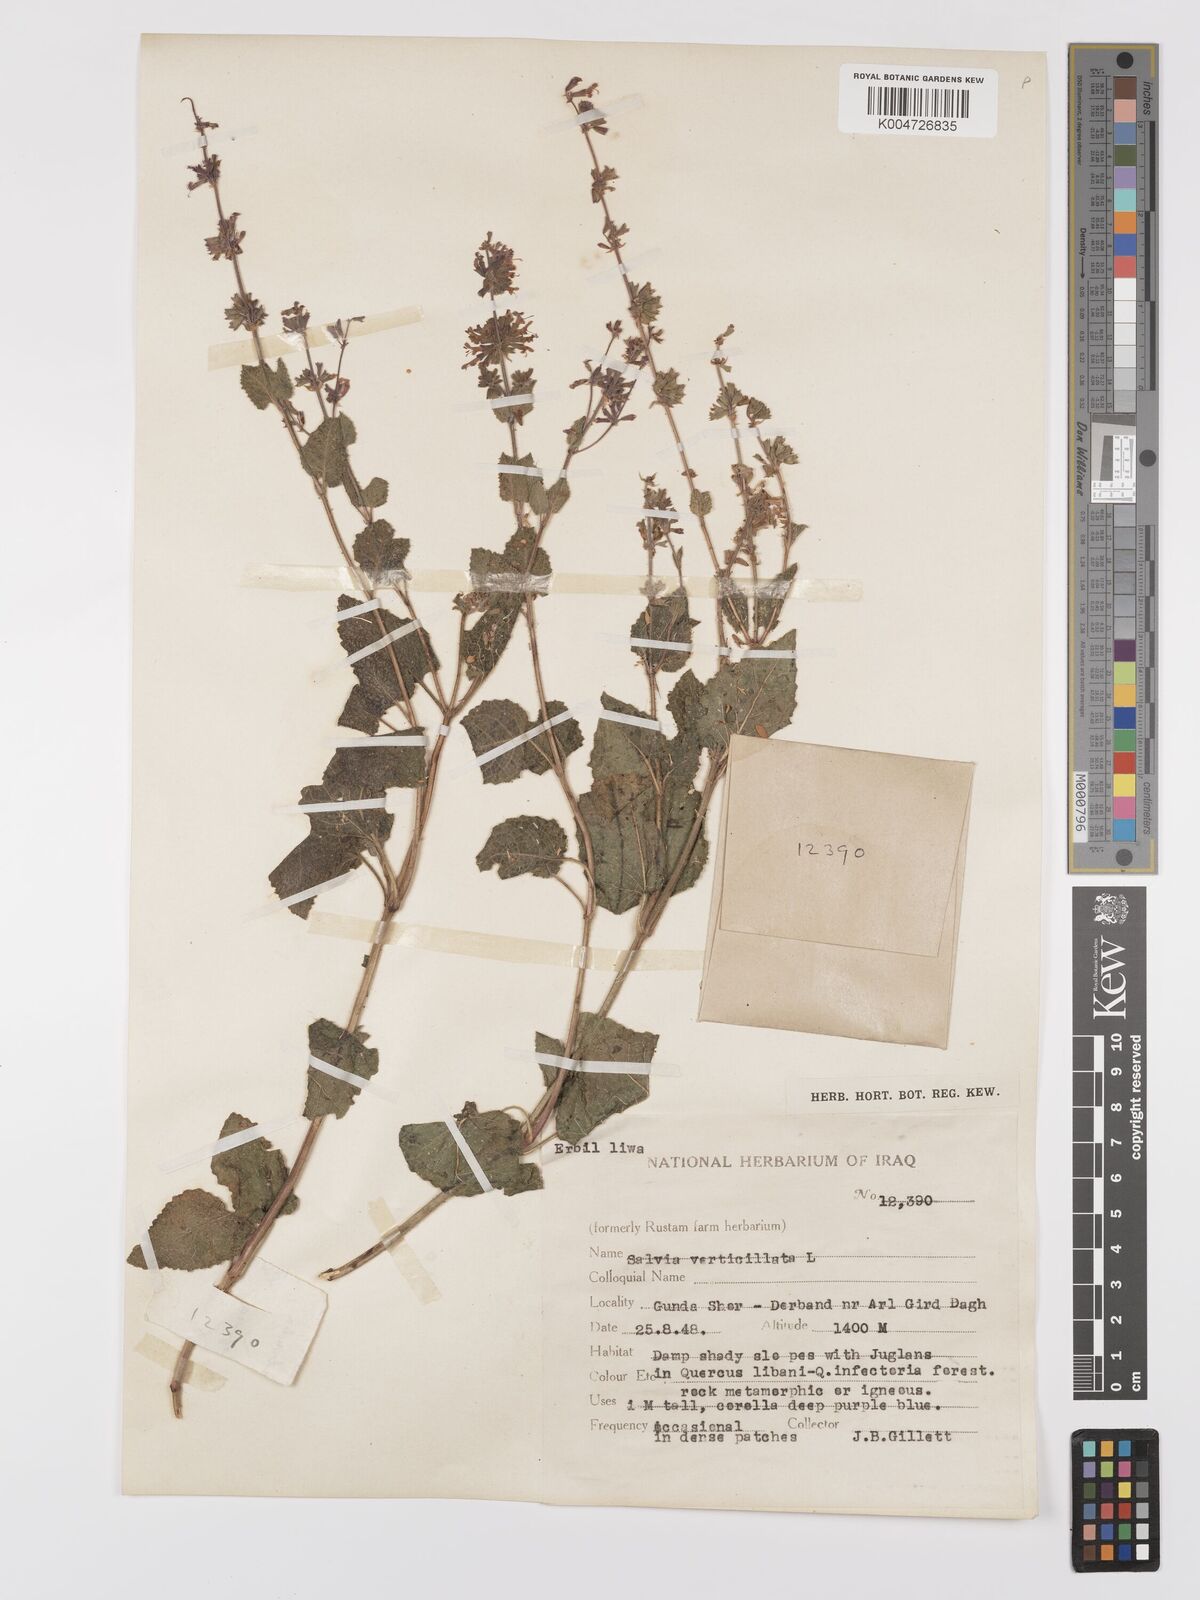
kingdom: Plantae
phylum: Tracheophyta
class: Magnoliopsida
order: Lamiales
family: Lamiaceae
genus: Salvia
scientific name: Salvia
